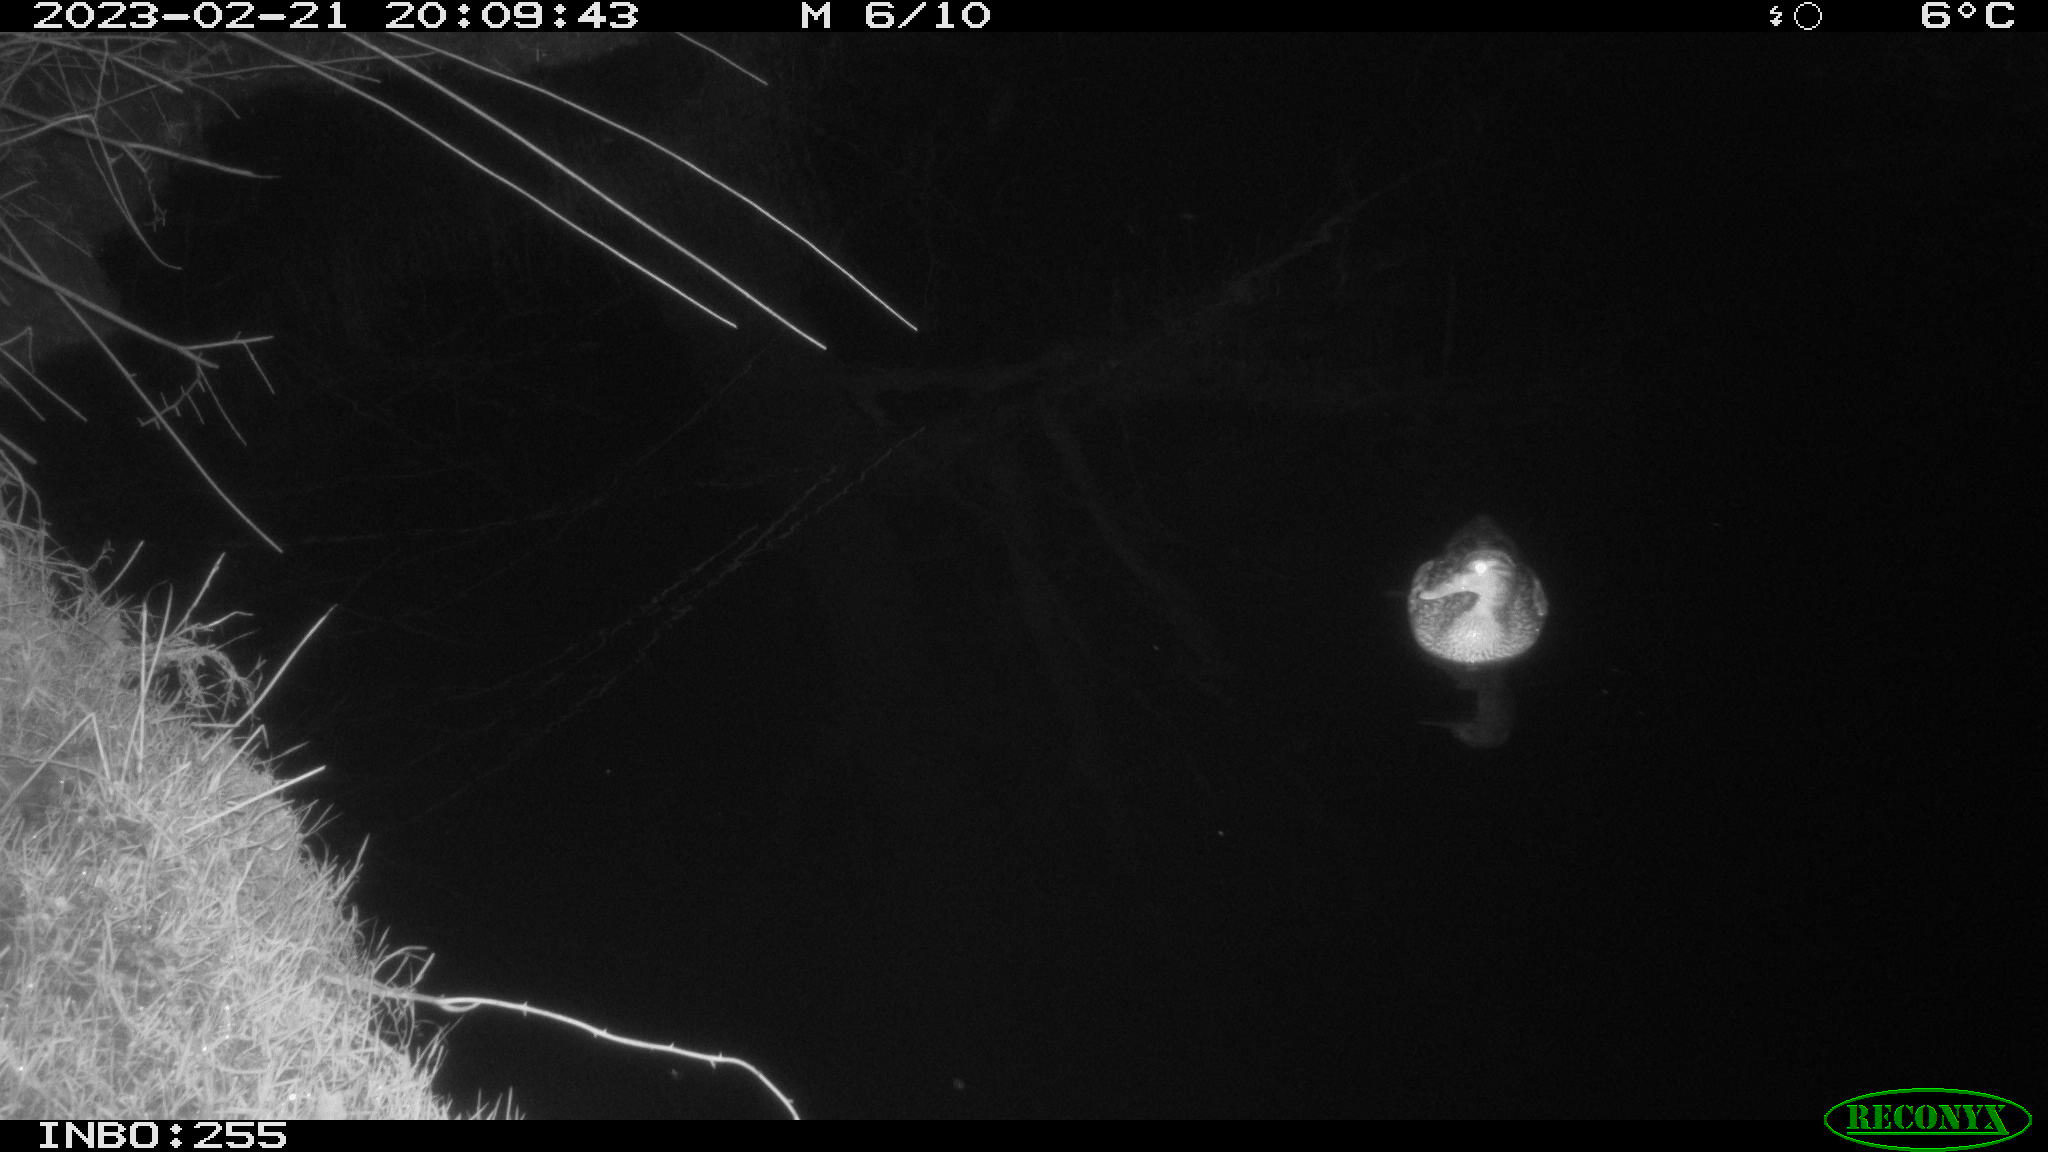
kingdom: Animalia
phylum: Chordata
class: Aves
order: Anseriformes
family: Anatidae
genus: Anas
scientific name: Anas
